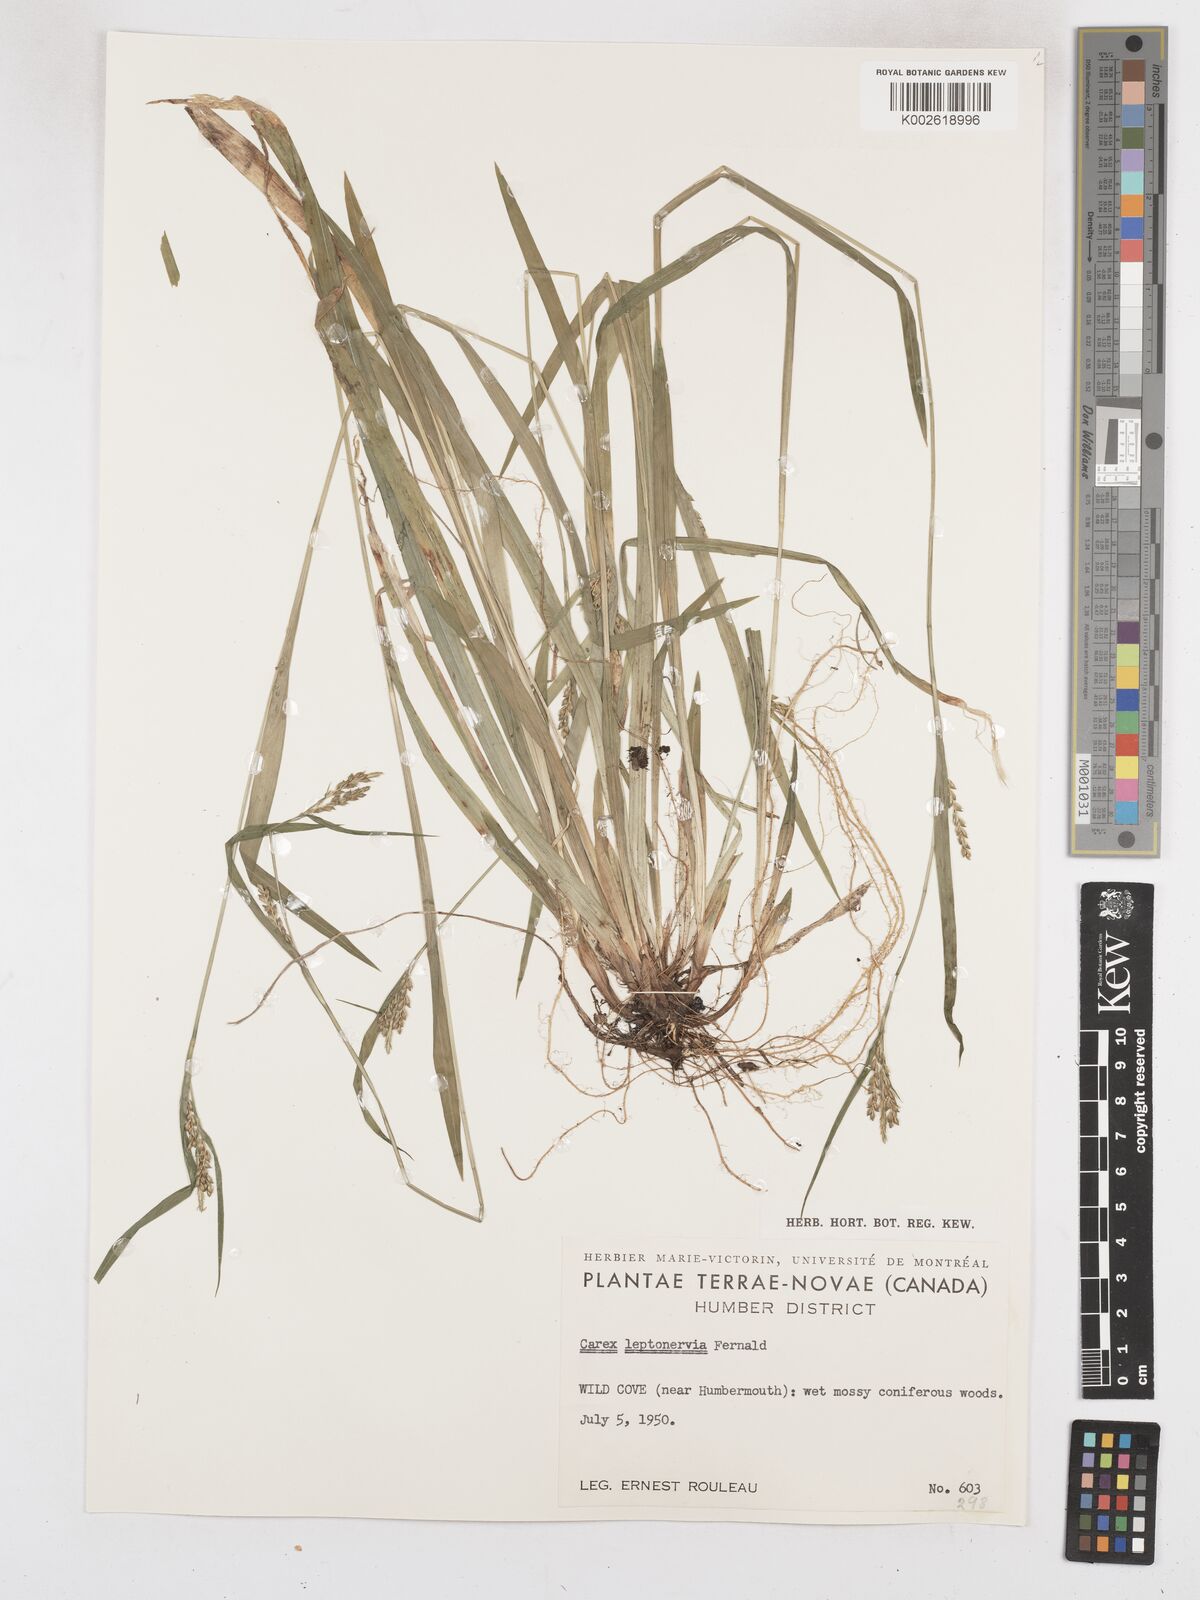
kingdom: Plantae
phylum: Tracheophyta
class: Liliopsida
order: Poales
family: Cyperaceae
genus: Carex
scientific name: Carex leptonervia
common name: Few-nerved wood sedge
